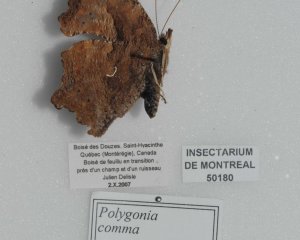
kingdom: Animalia
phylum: Arthropoda
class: Insecta
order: Lepidoptera
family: Nymphalidae
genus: Polygonia
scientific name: Polygonia comma
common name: Eastern Comma
